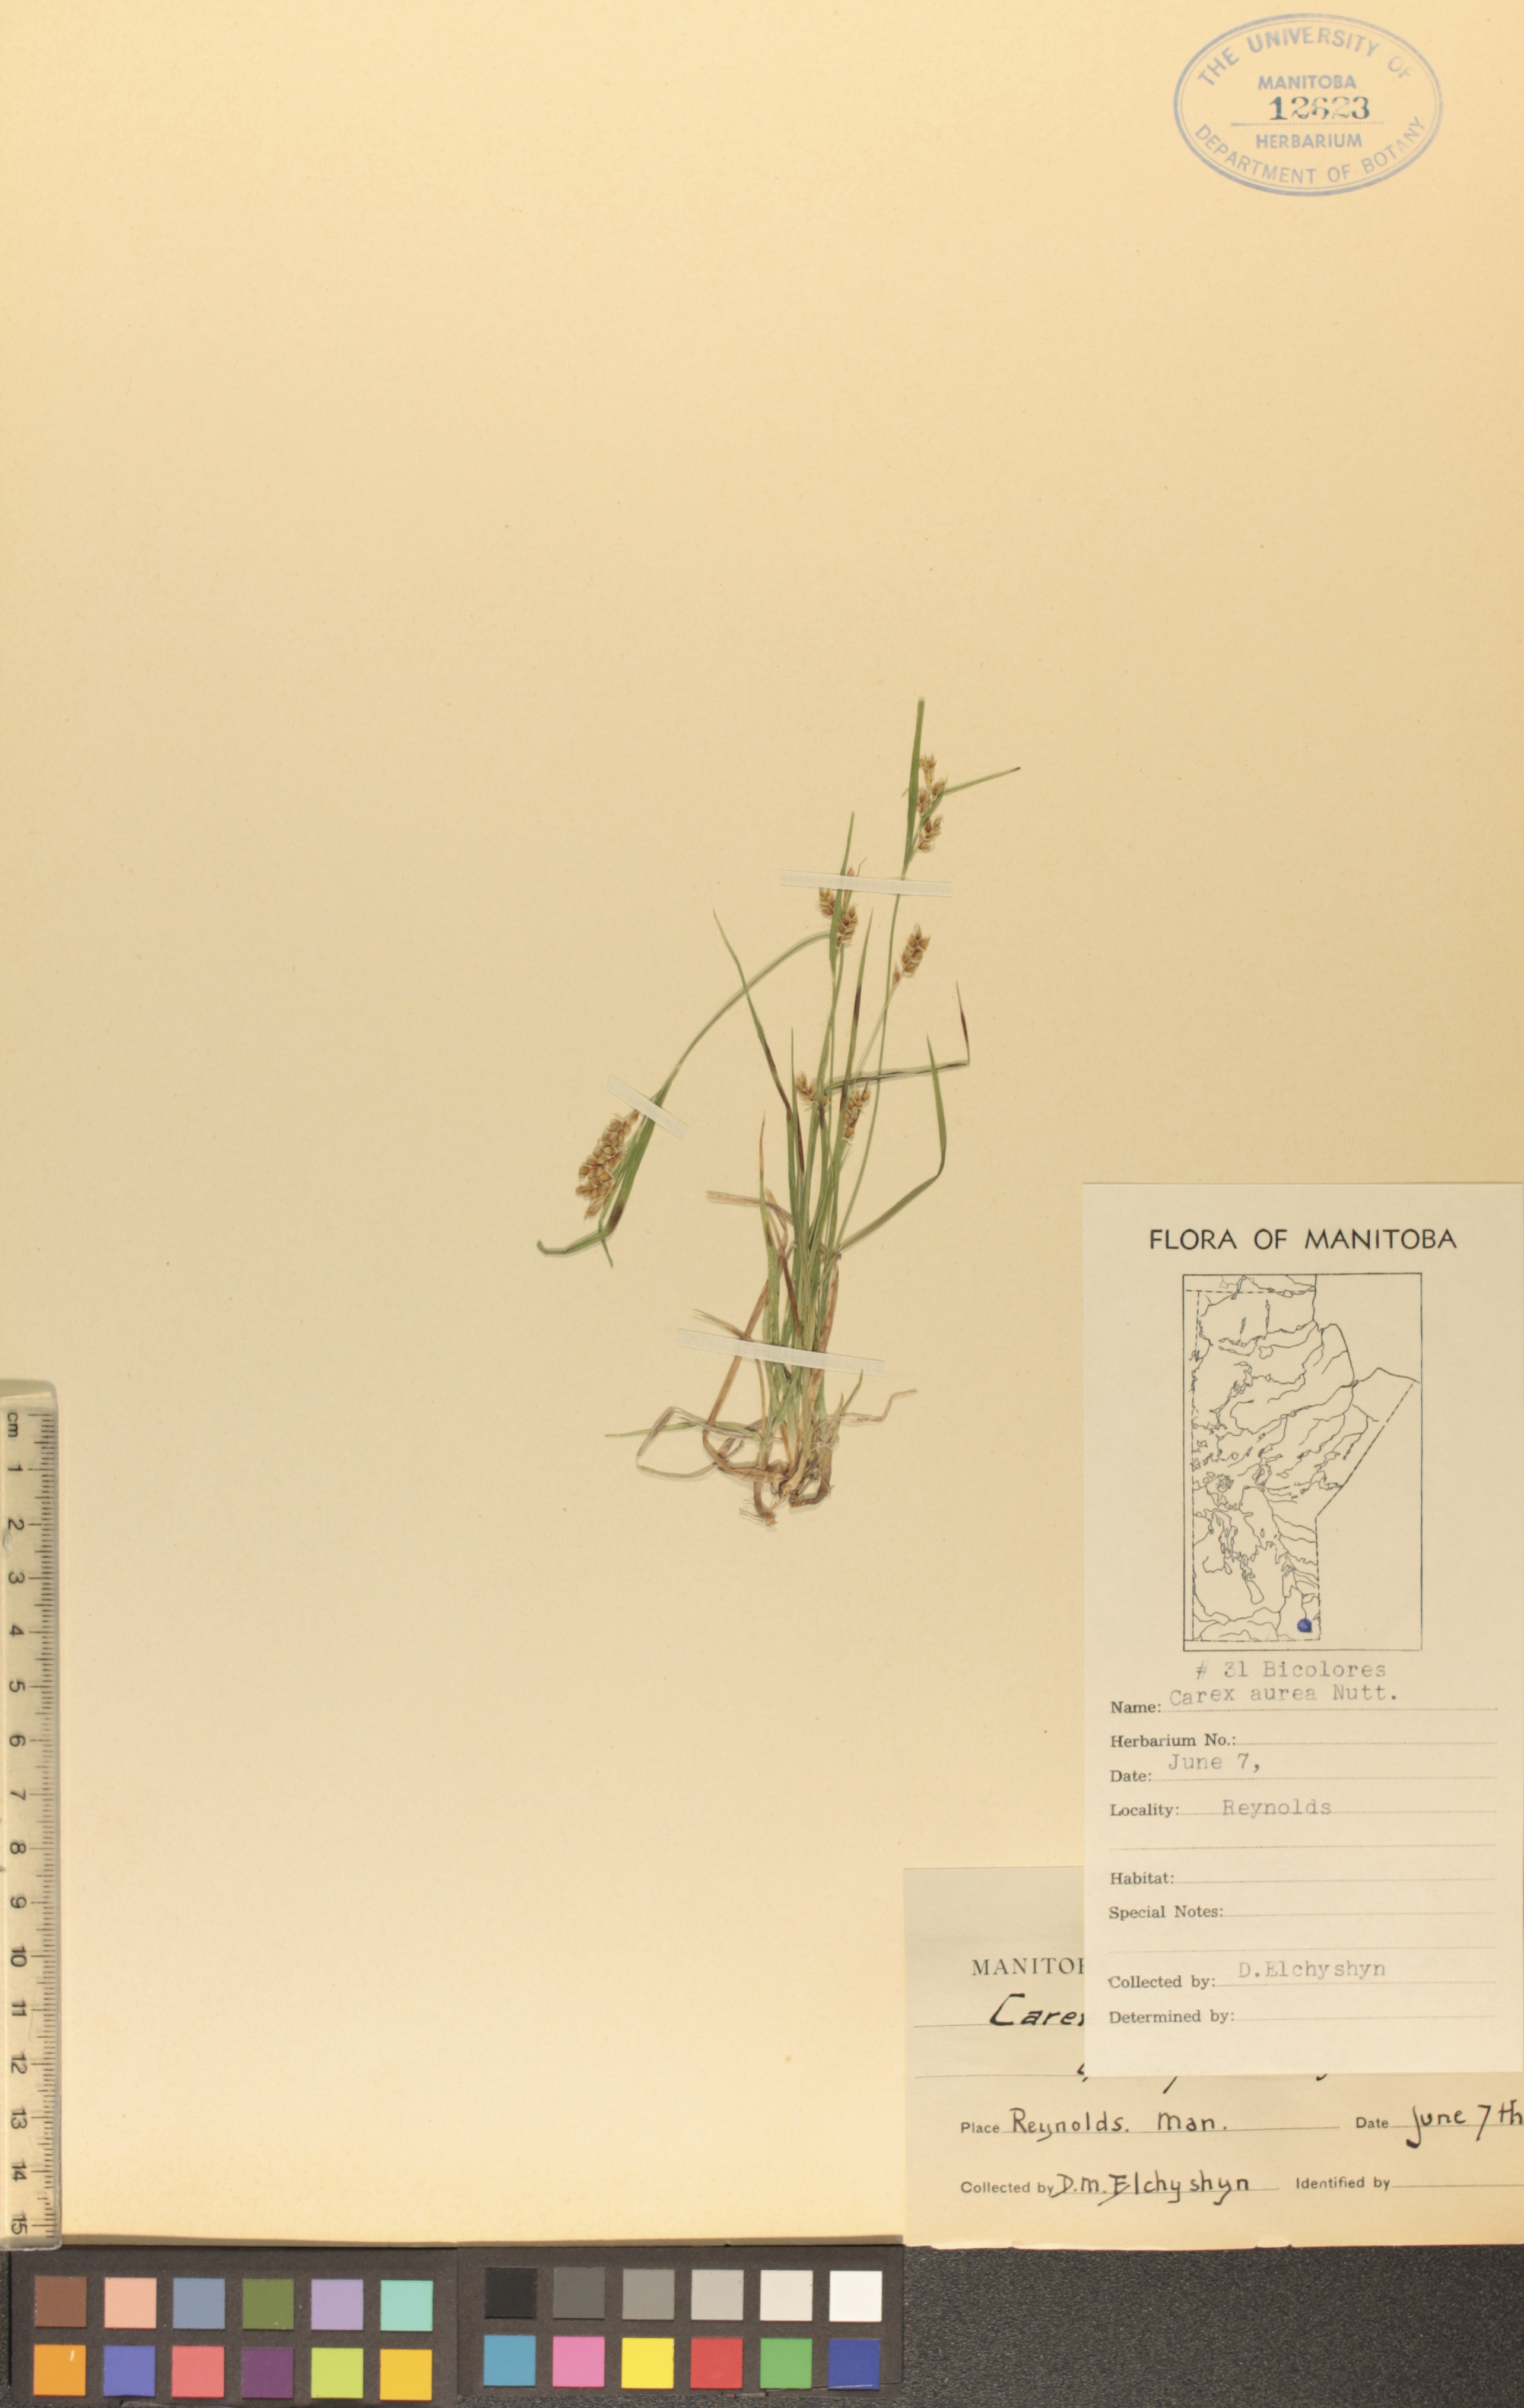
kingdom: Plantae
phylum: Tracheophyta
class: Liliopsida
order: Poales
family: Cyperaceae
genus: Carex
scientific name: Carex aurea
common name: Golden sedge
